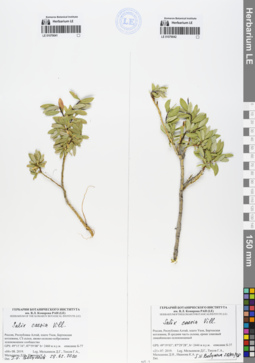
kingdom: Plantae
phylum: Tracheophyta
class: Magnoliopsida
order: Malpighiales
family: Salicaceae
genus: Salix
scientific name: Salix caesia
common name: Blue willow
